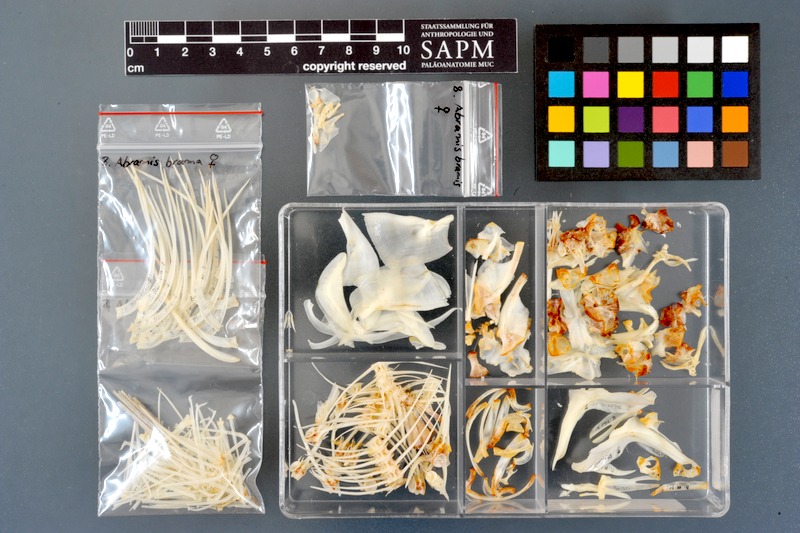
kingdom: Animalia
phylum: Chordata
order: Cypriniformes
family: Cyprinidae
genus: Abramis
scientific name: Abramis brama
